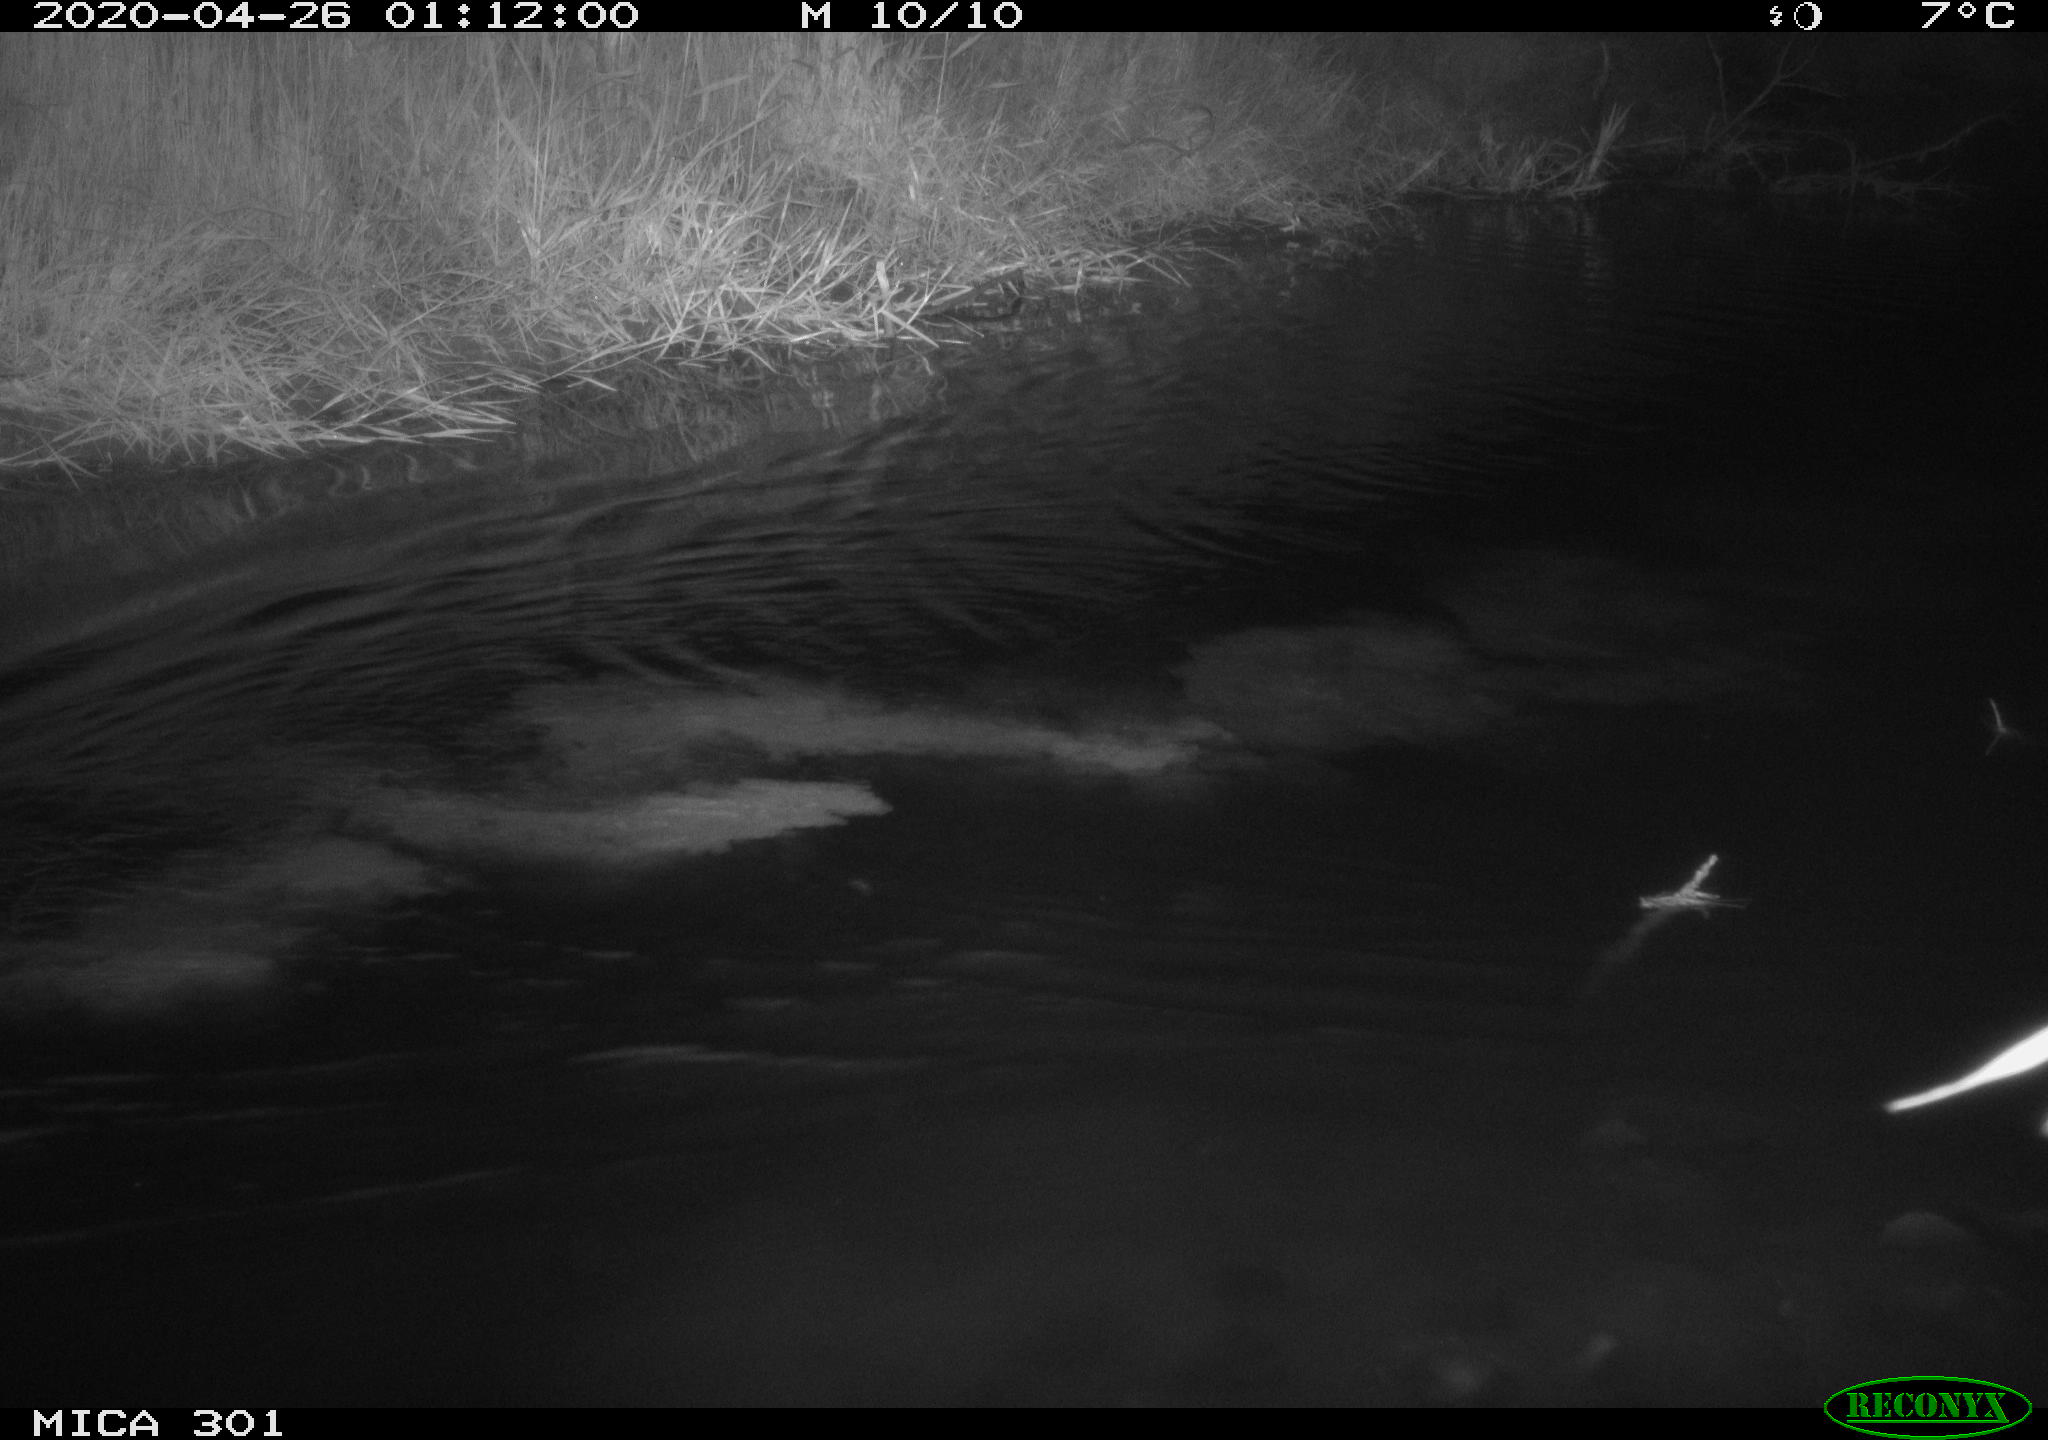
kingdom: Animalia
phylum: Chordata
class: Mammalia
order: Rodentia
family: Castoridae
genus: Castor
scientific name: Castor fiber
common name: Eurasian beaver
